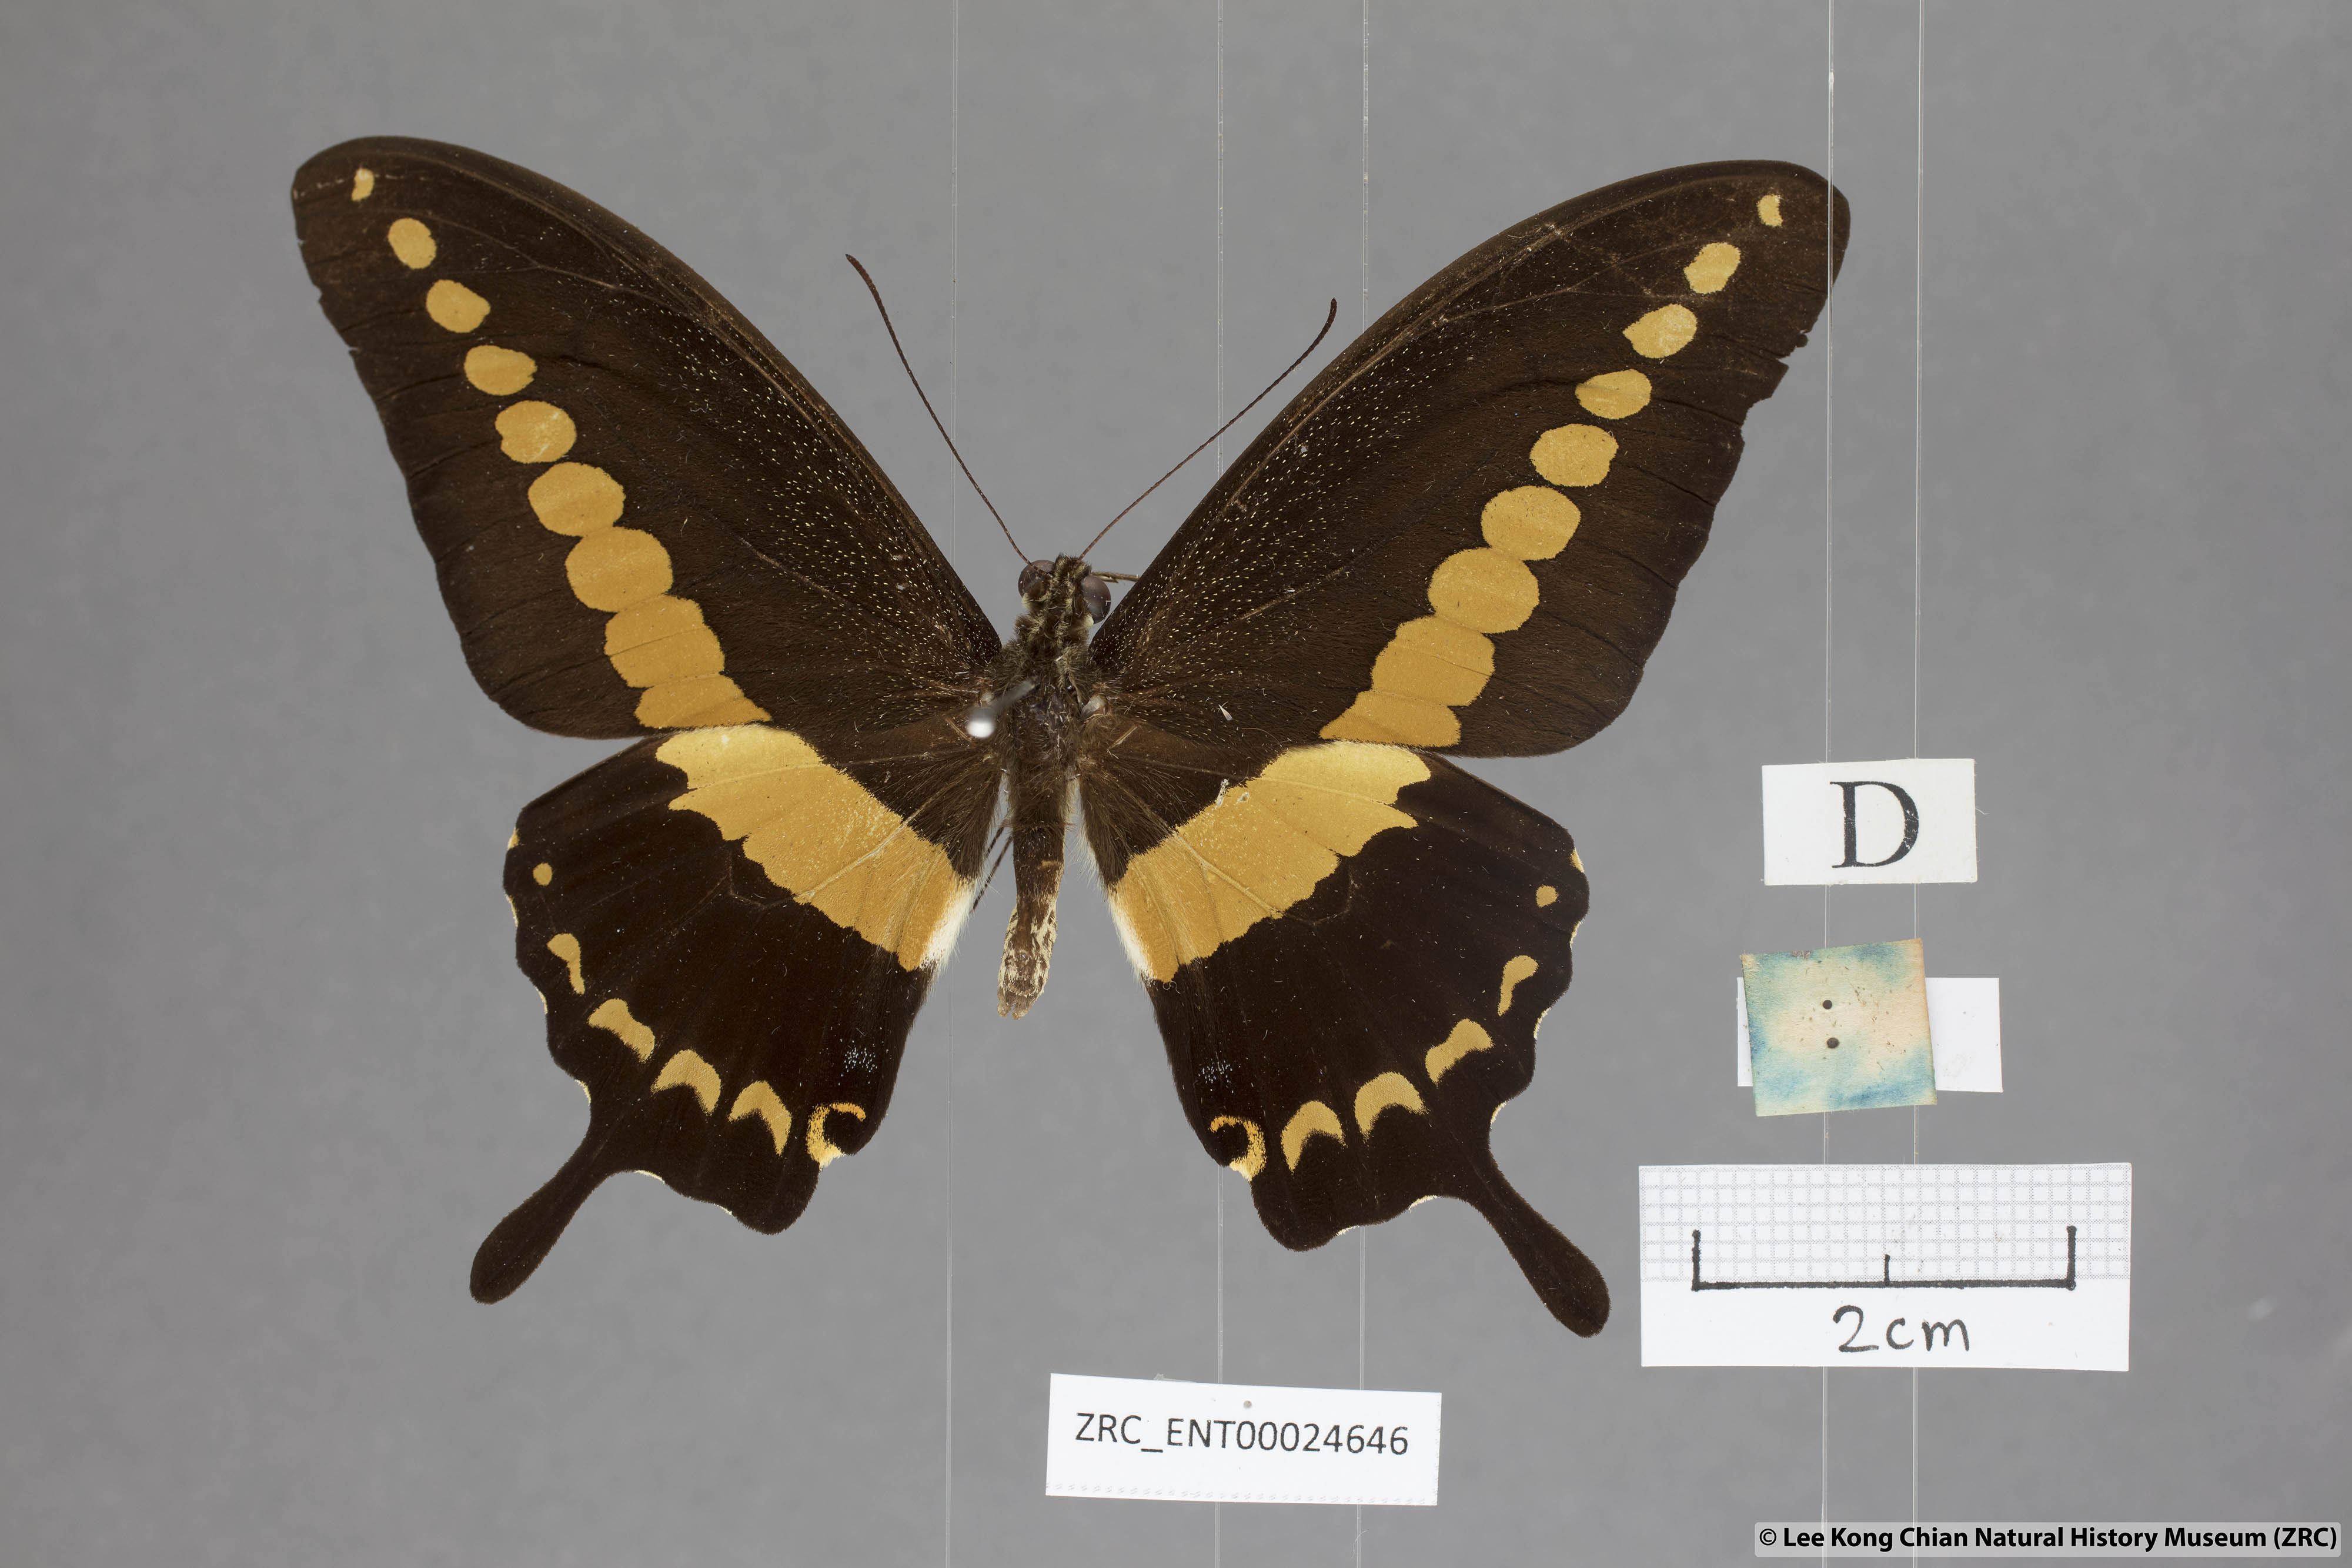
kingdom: Animalia
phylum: Arthropoda
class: Insecta
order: Lepidoptera
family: Papilionidae
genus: Papilio
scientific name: Papilio demolion
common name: Banded swallowtail
